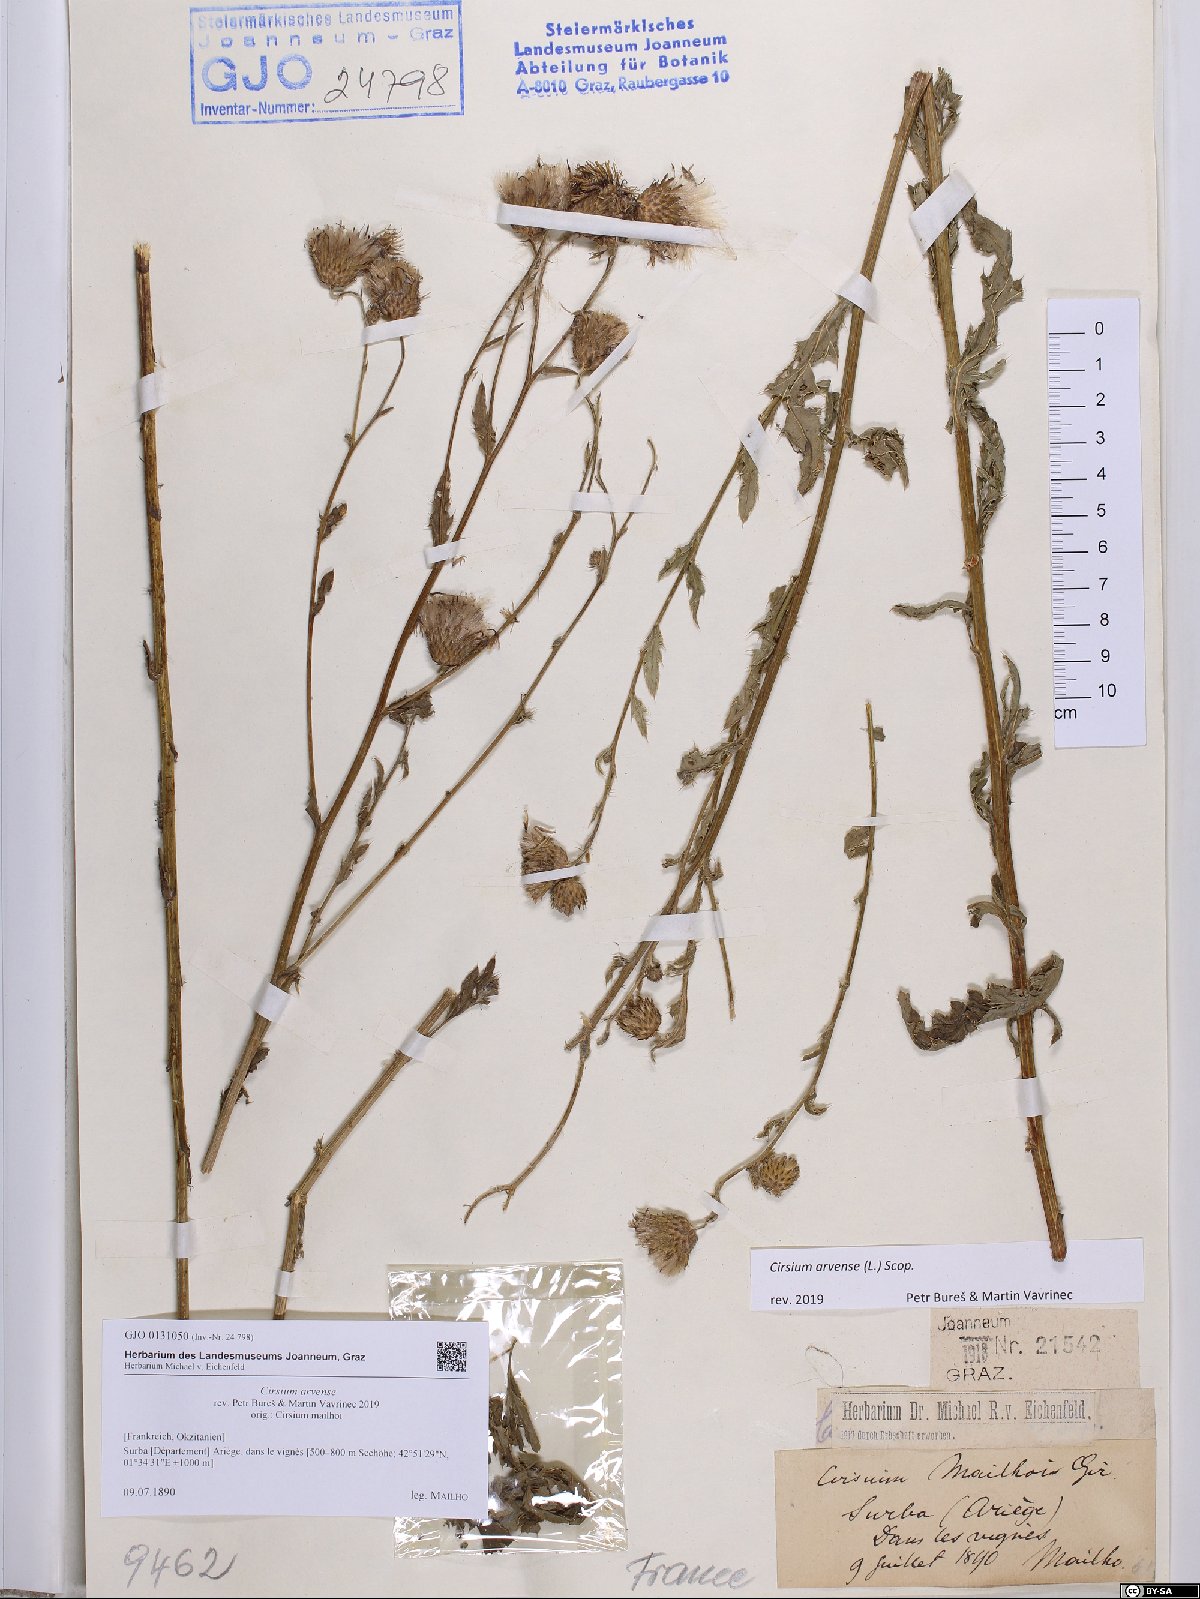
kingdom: Plantae
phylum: Tracheophyta
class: Magnoliopsida
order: Asterales
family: Asteraceae
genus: Cirsium
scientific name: Cirsium arvense
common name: Creeping thistle
